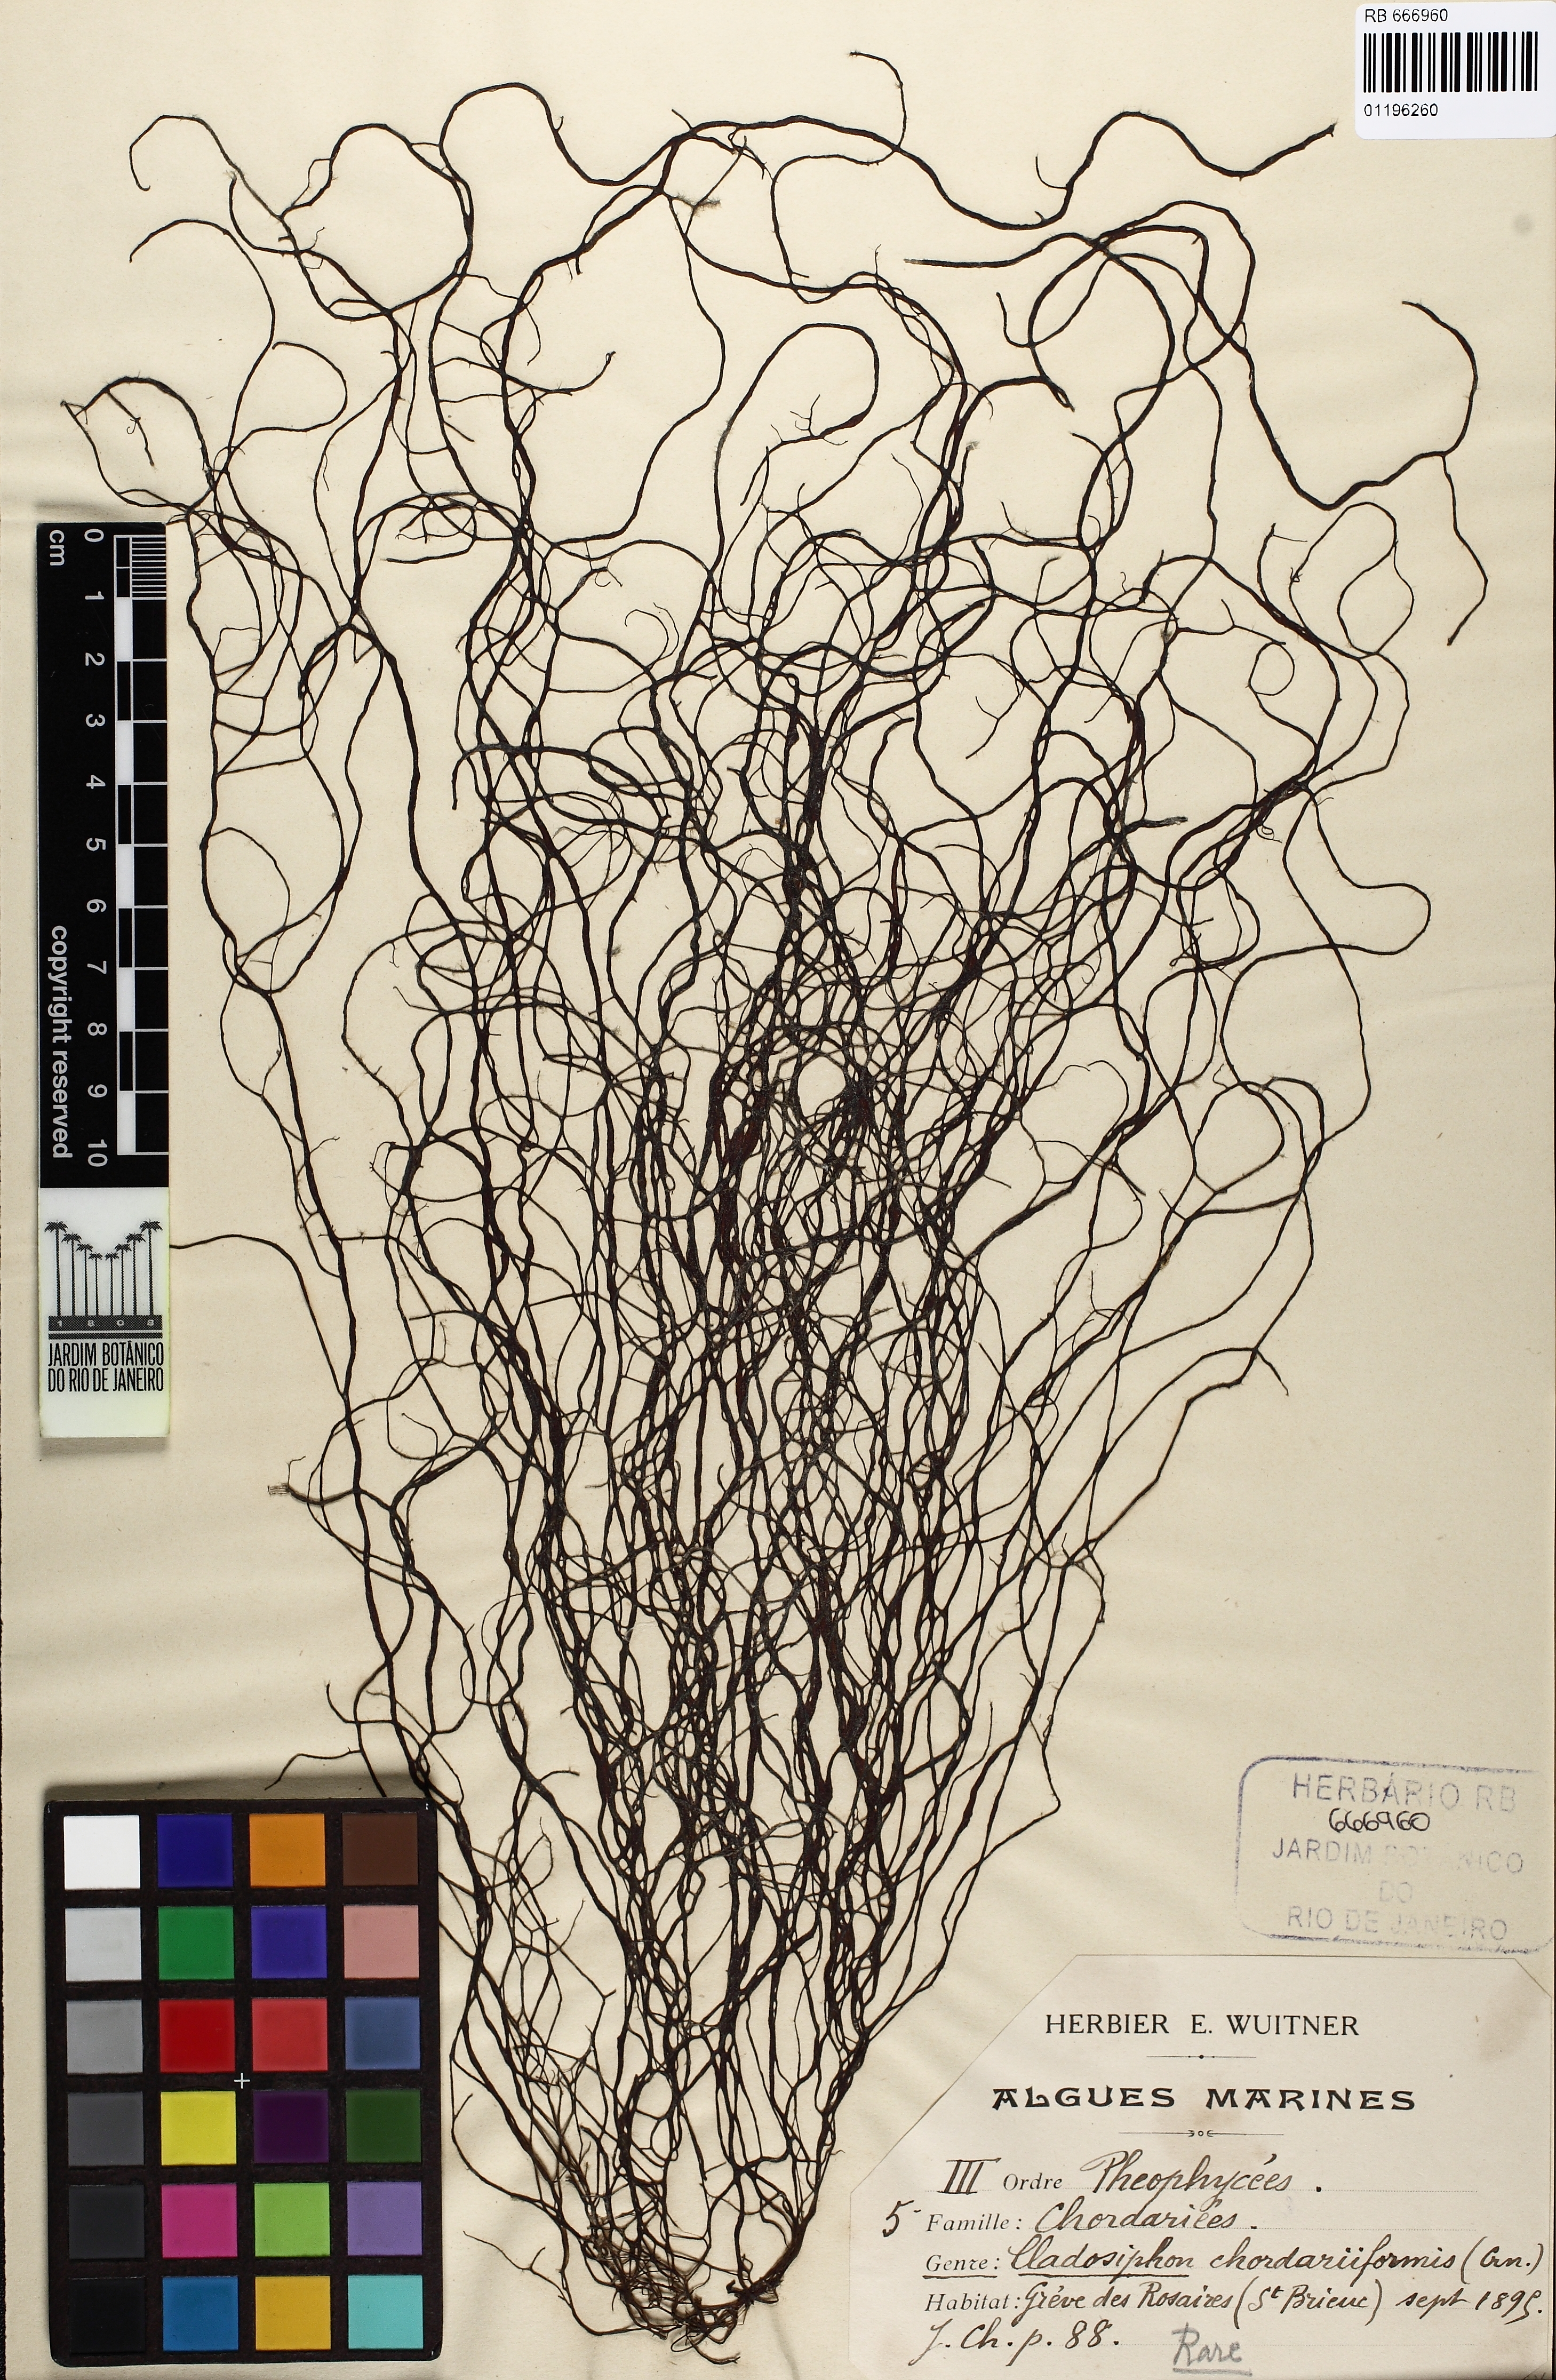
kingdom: Chromista
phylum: Ochrophyta
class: Phaeophyceae
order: Ectocarpales
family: Chordariaceae
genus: Sauvageaugloia
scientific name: Sauvageaugloia chordariaeformis
